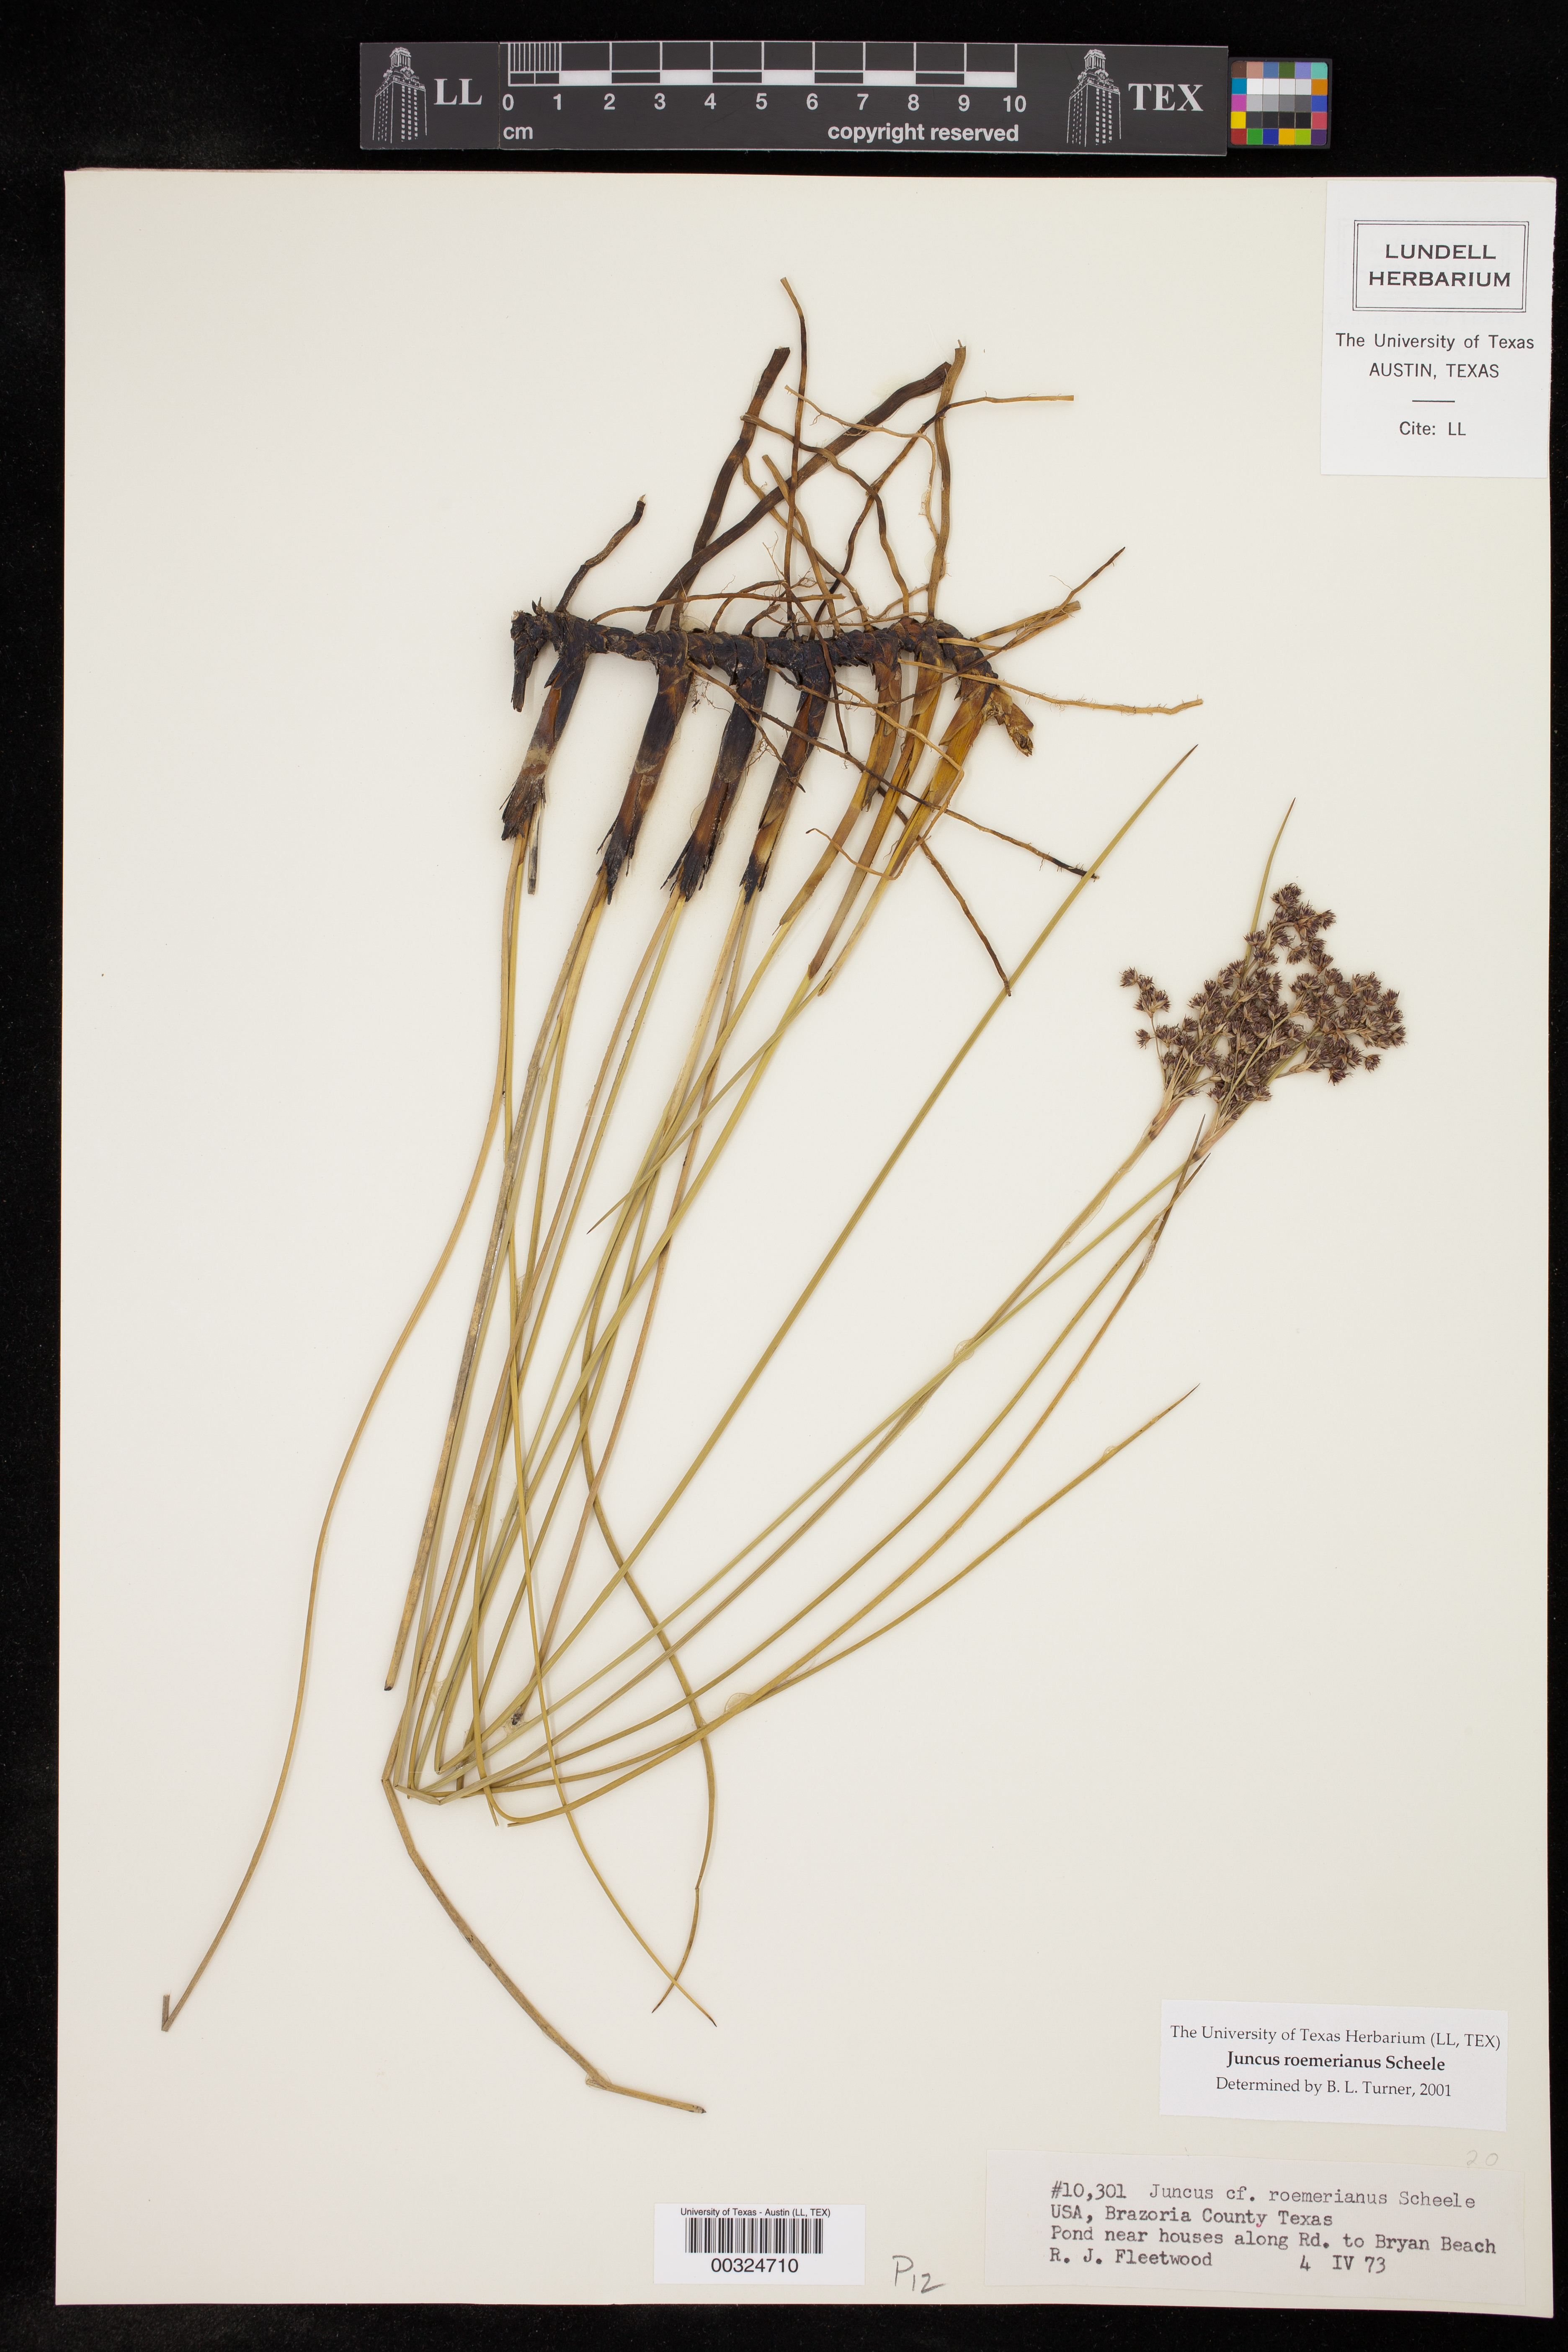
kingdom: Plantae
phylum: Tracheophyta
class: Liliopsida
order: Poales
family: Juncaceae
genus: Juncus
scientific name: Juncus roemerianus
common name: Roemer's rush
